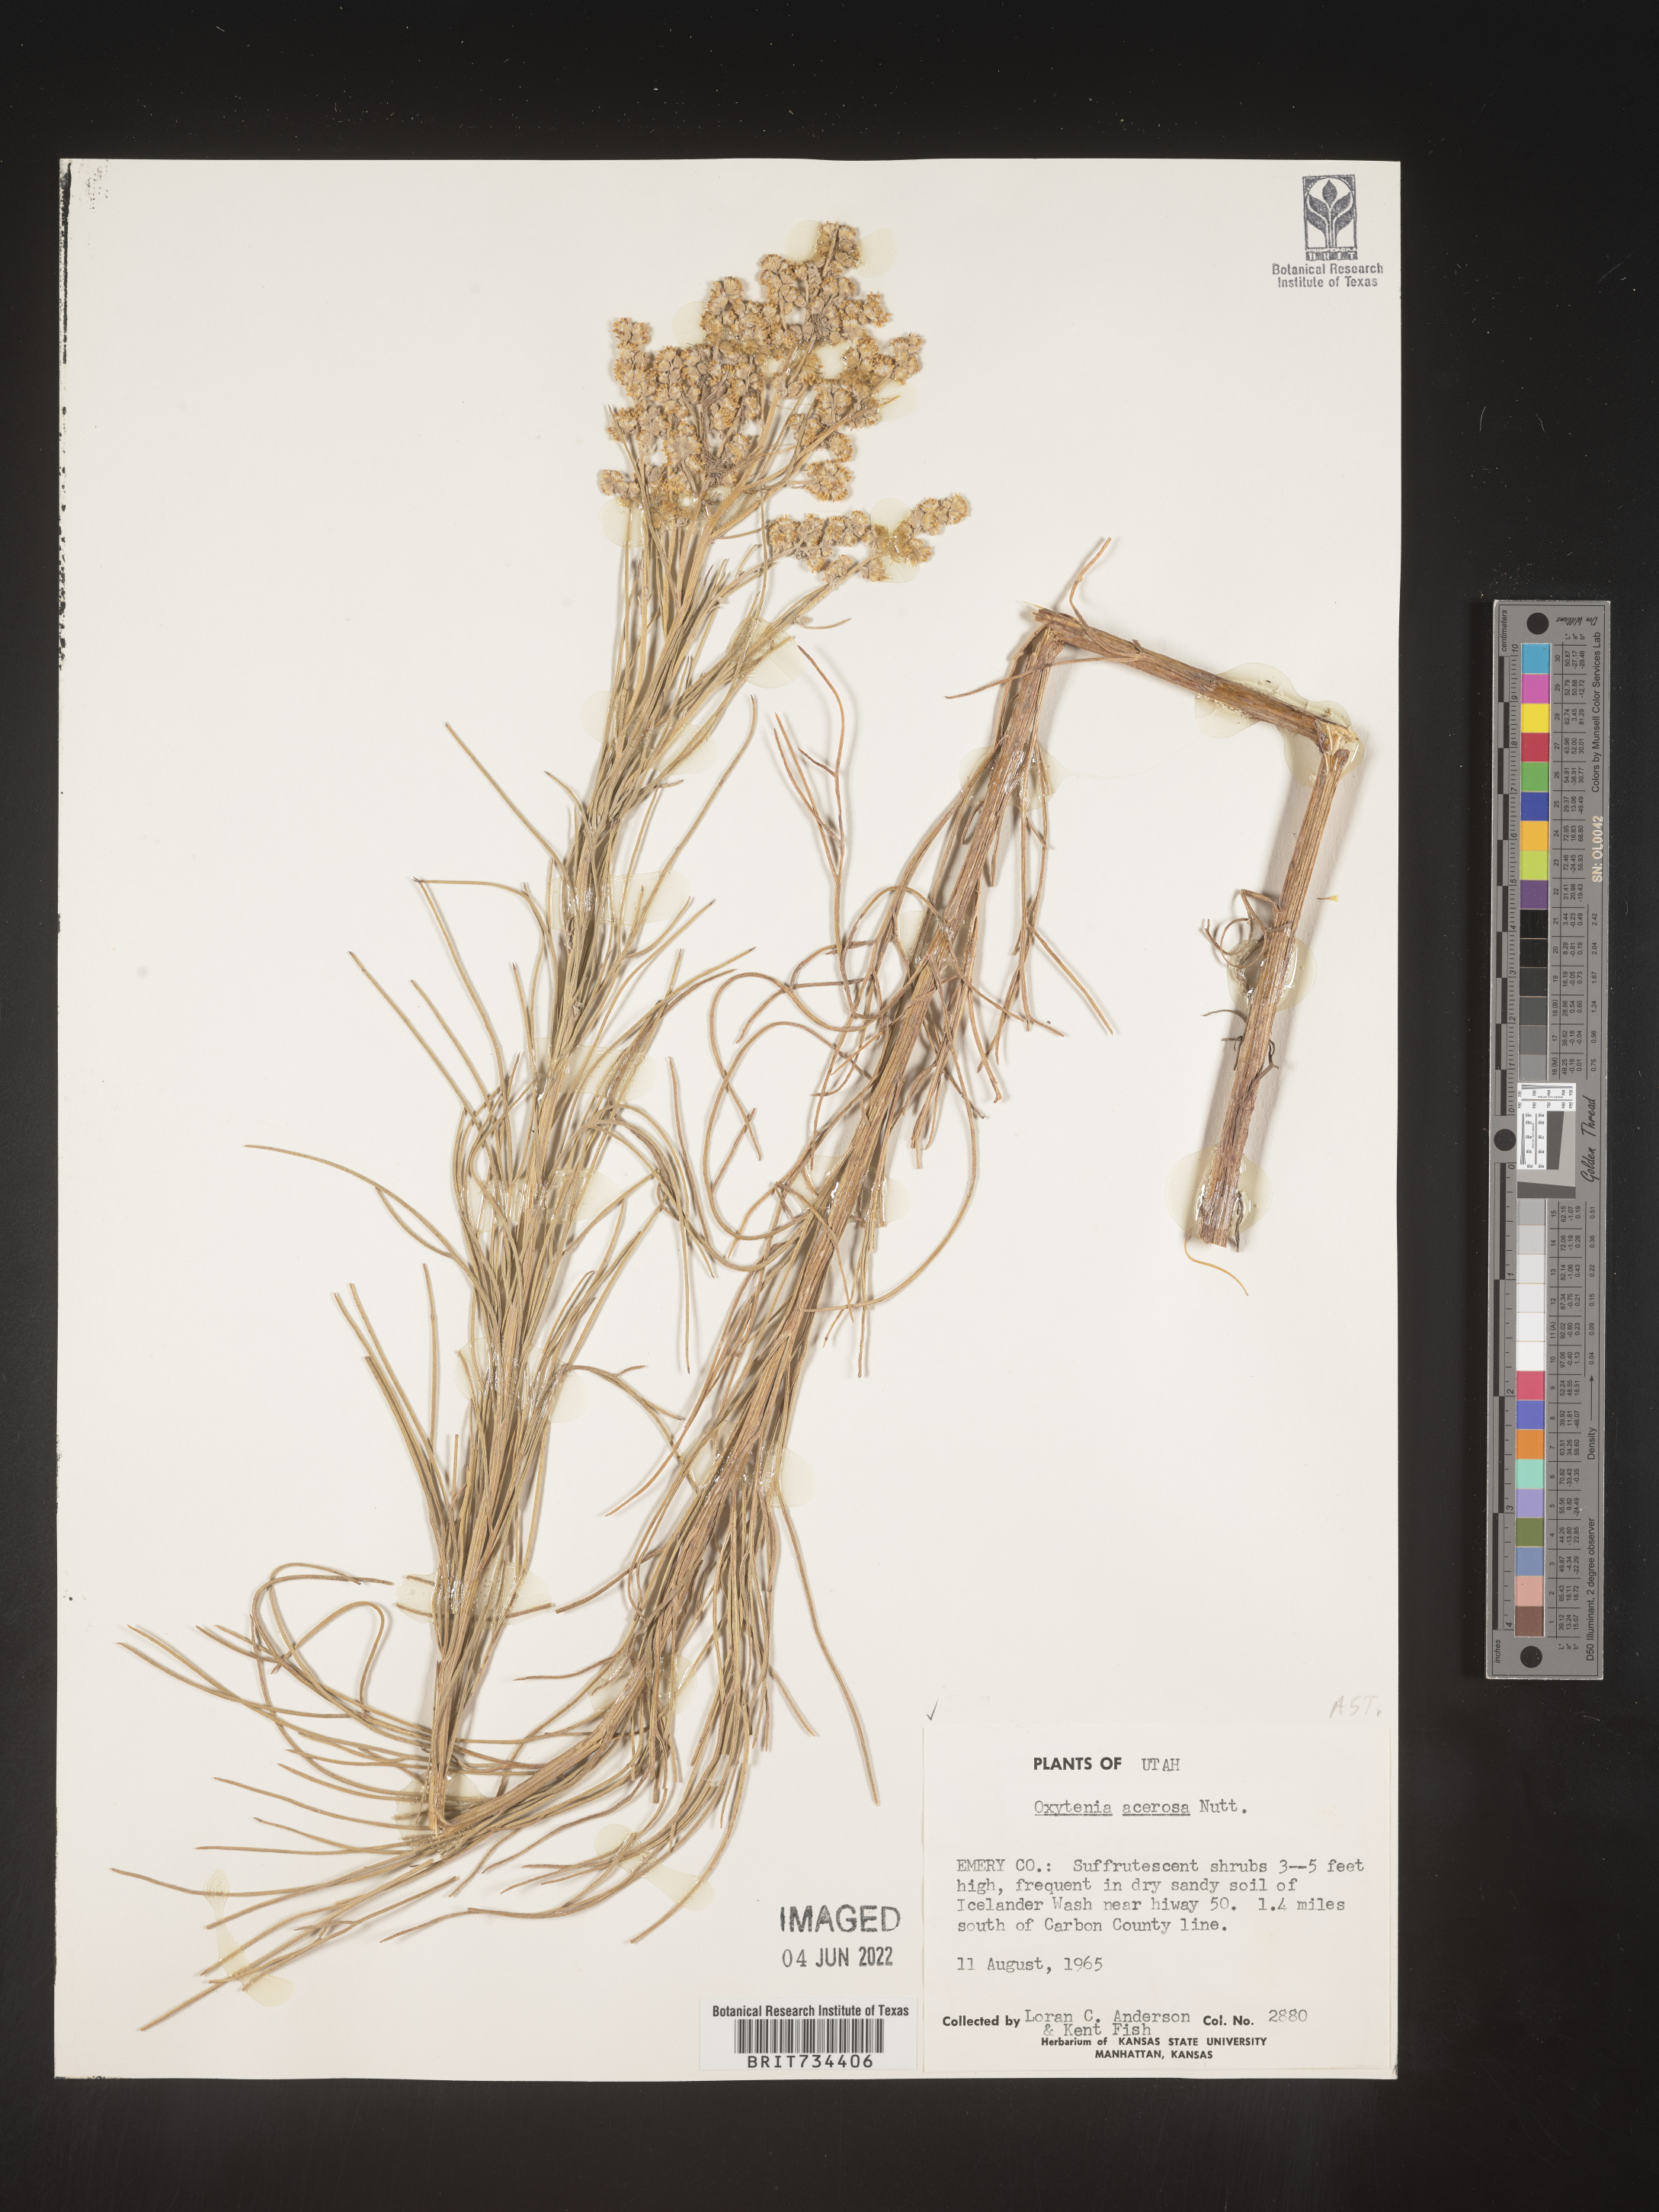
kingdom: Plantae
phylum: Tracheophyta
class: Magnoliopsida
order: Asterales
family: Asteraceae
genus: Euphrosyne
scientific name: Euphrosyne acerosa
